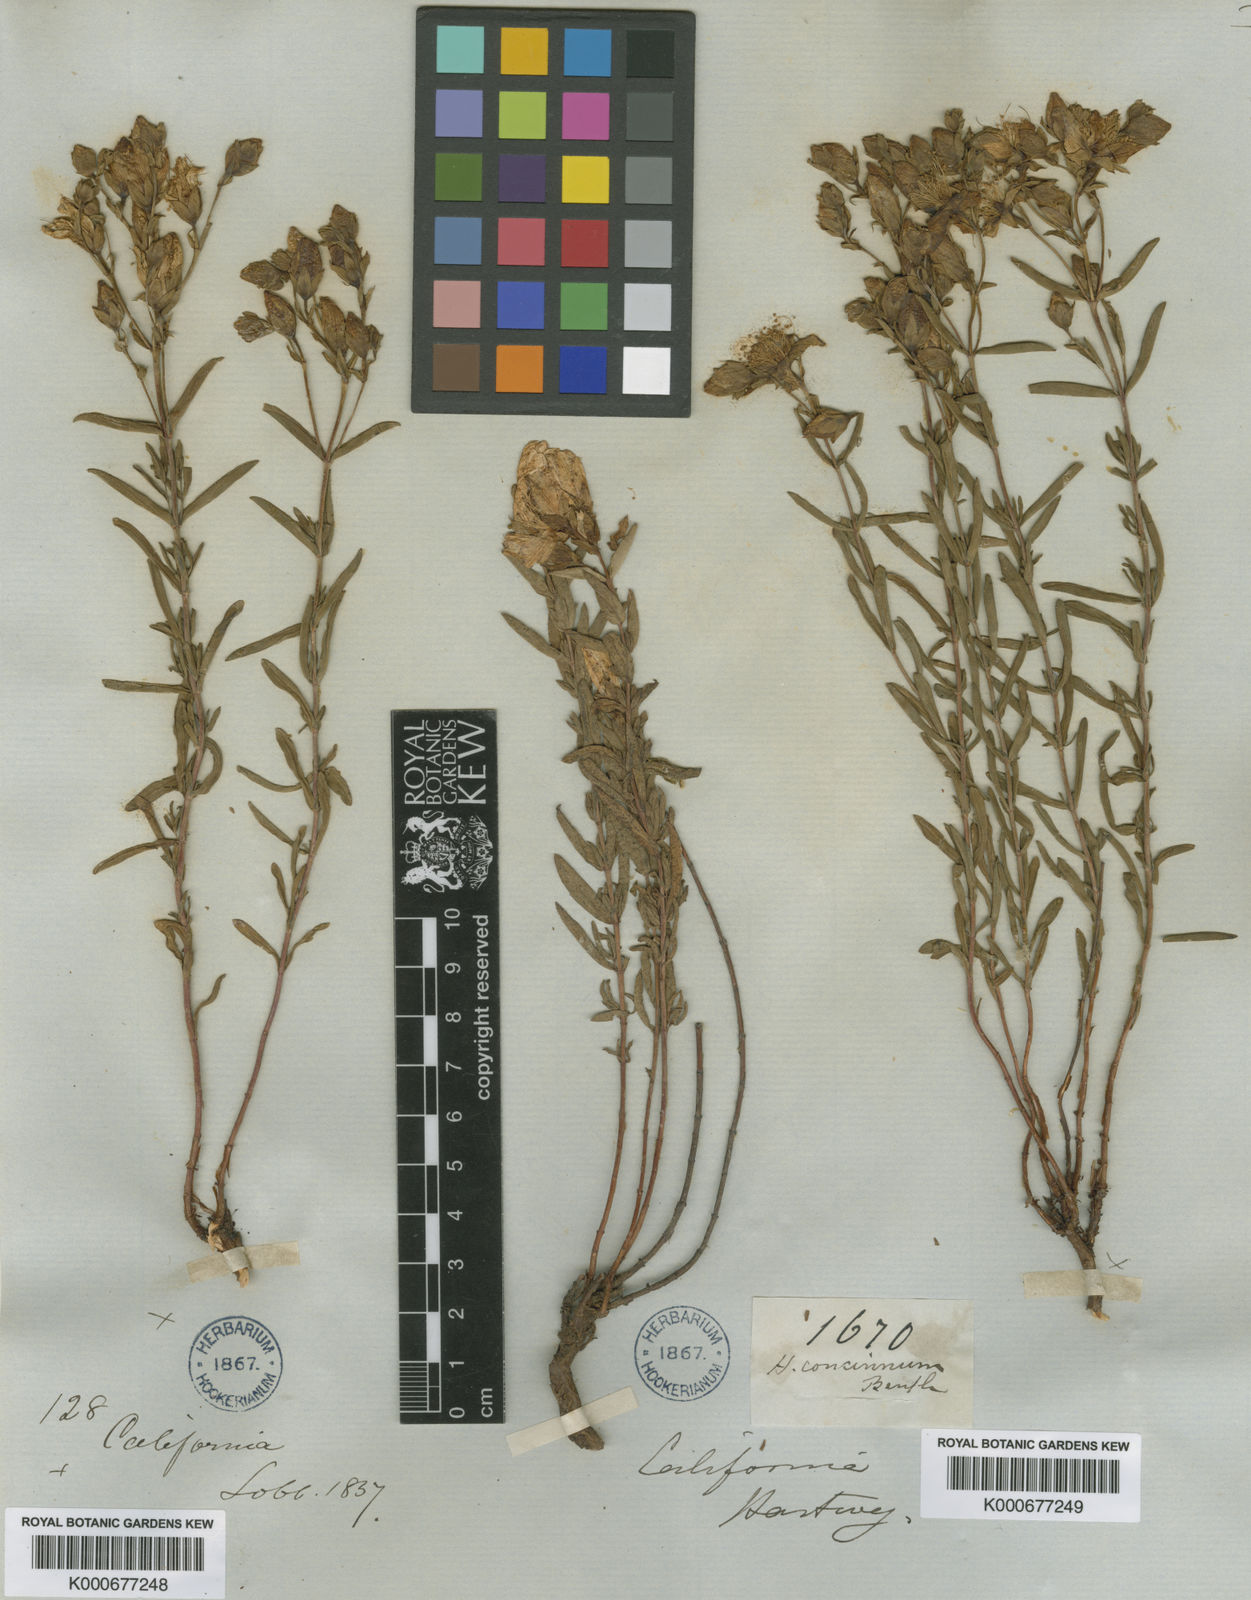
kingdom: Plantae
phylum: Tracheophyta
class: Magnoliopsida
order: Malpighiales
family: Hypericaceae
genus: Hypericum
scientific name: Hypericum concinnum
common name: Gold-wire
